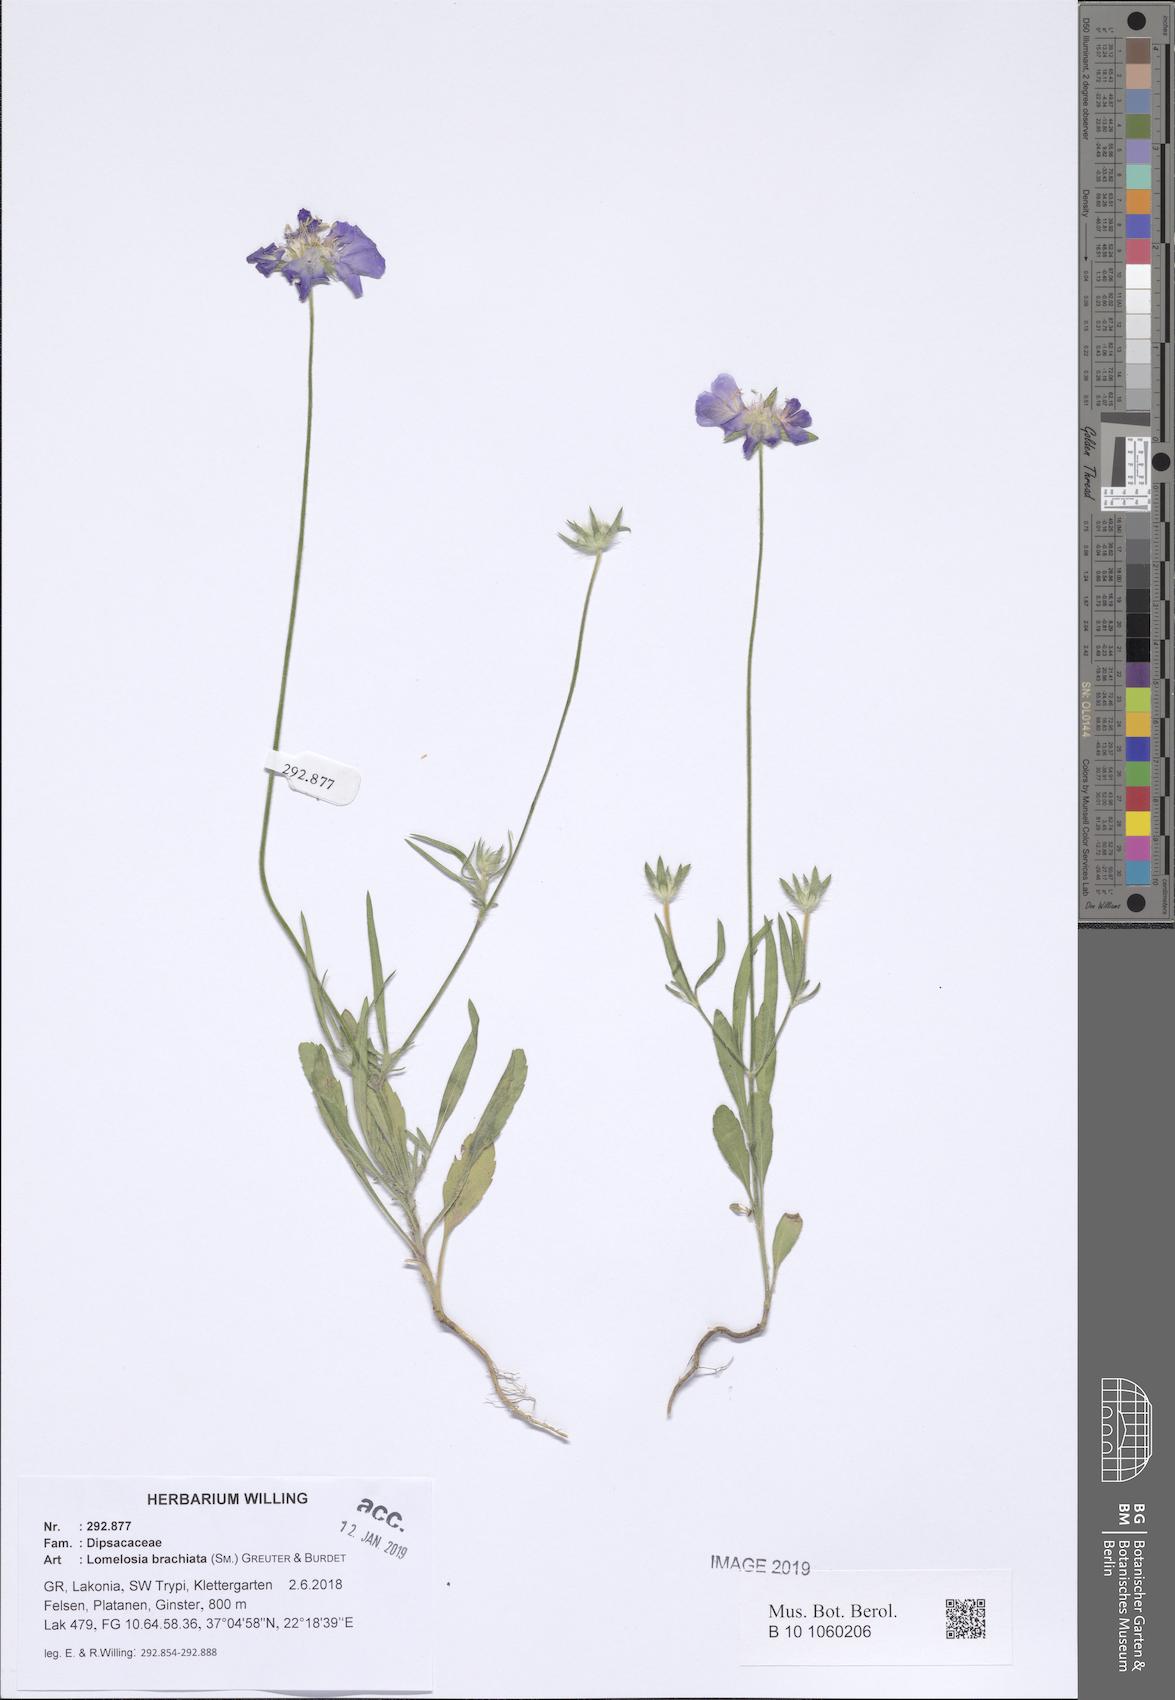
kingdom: Plantae
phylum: Tracheophyta
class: Magnoliopsida
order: Dipsacales
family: Caprifoliaceae
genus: Lomelosia
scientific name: Lomelosia brachiata
